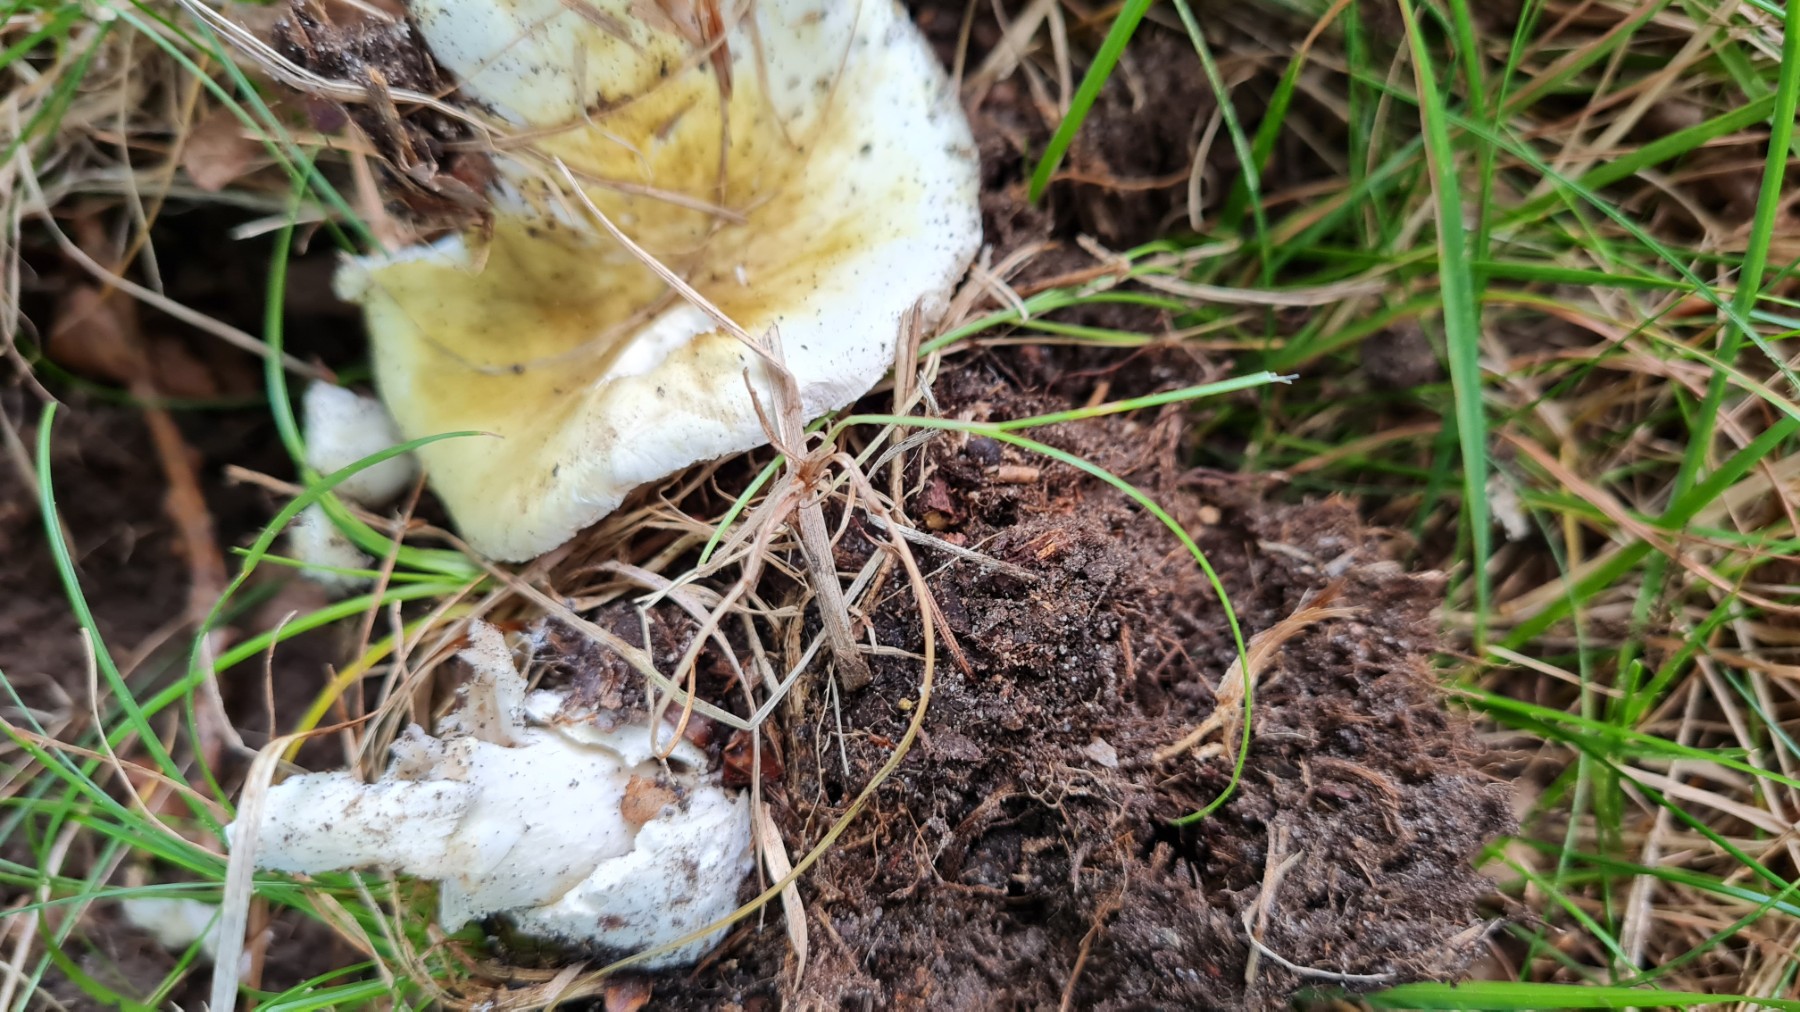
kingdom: Fungi
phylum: Basidiomycota
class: Agaricomycetes
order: Agaricales
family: Amanitaceae
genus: Amanita
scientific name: Amanita phalloides
